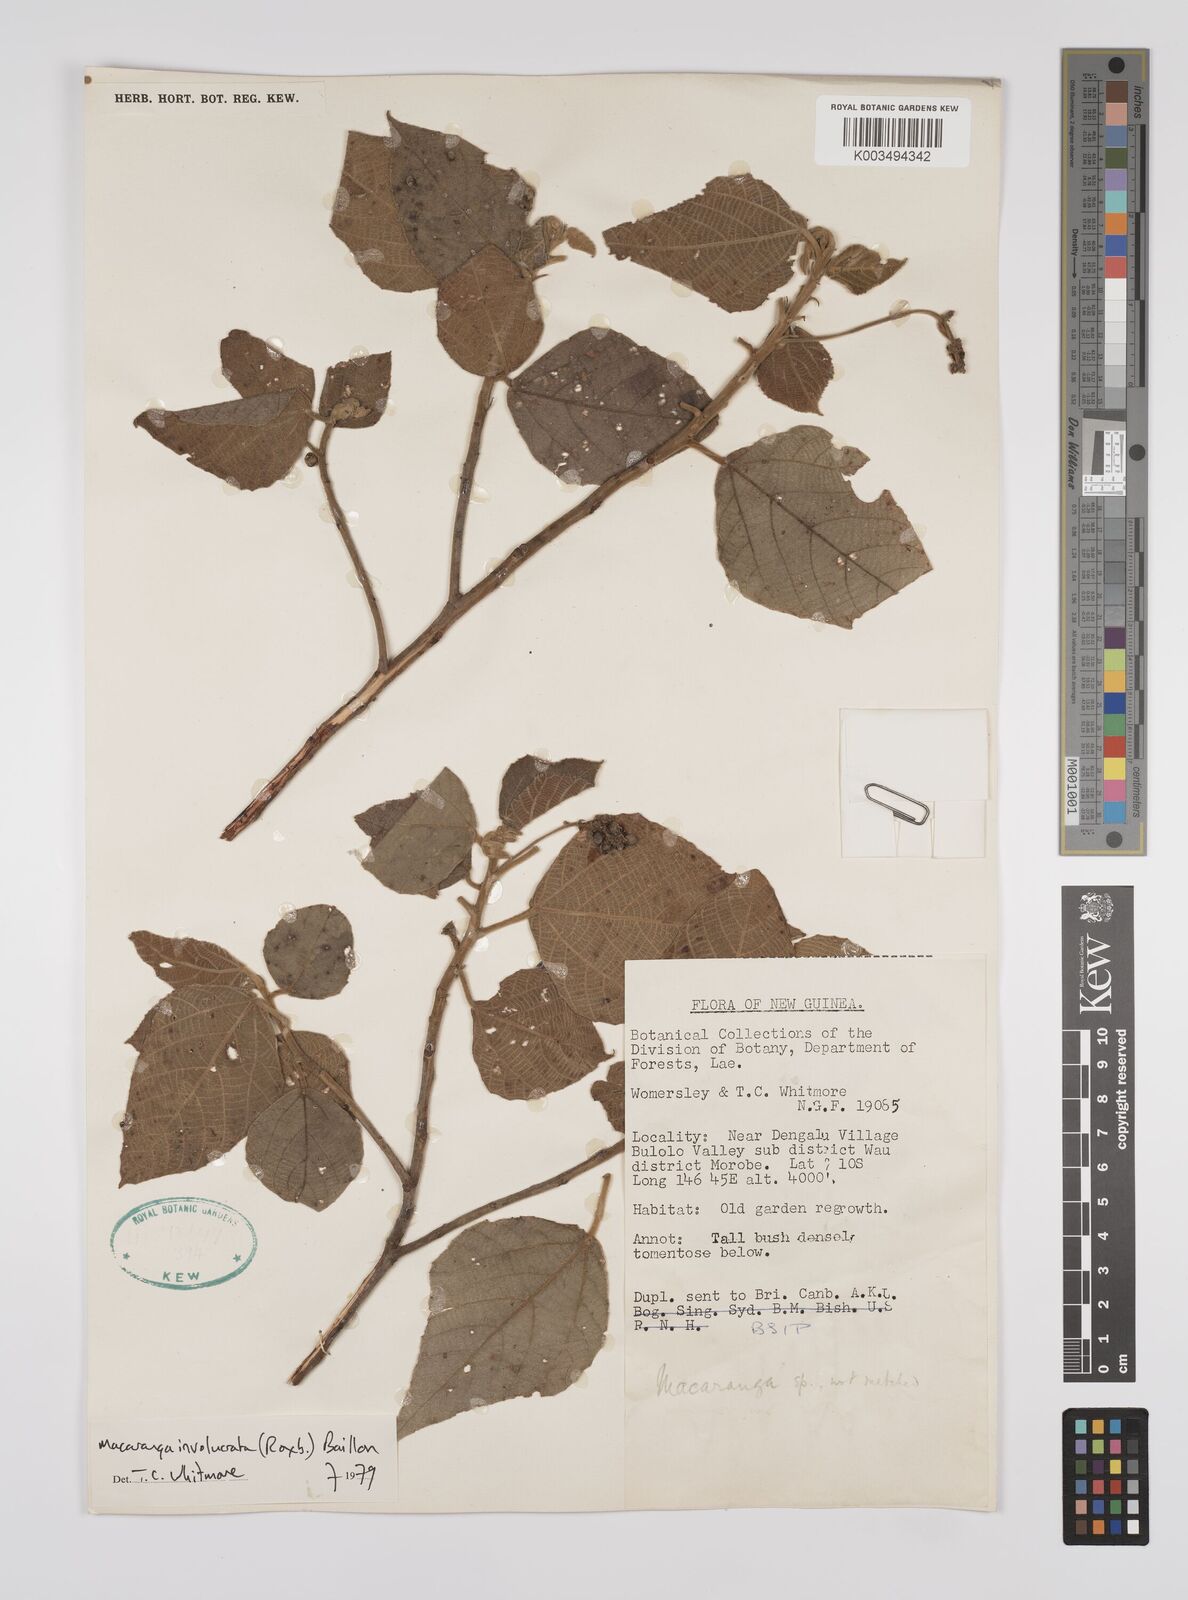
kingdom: Plantae
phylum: Tracheophyta
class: Magnoliopsida
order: Malpighiales
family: Euphorbiaceae
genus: Macaranga
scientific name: Macaranga involucrata
